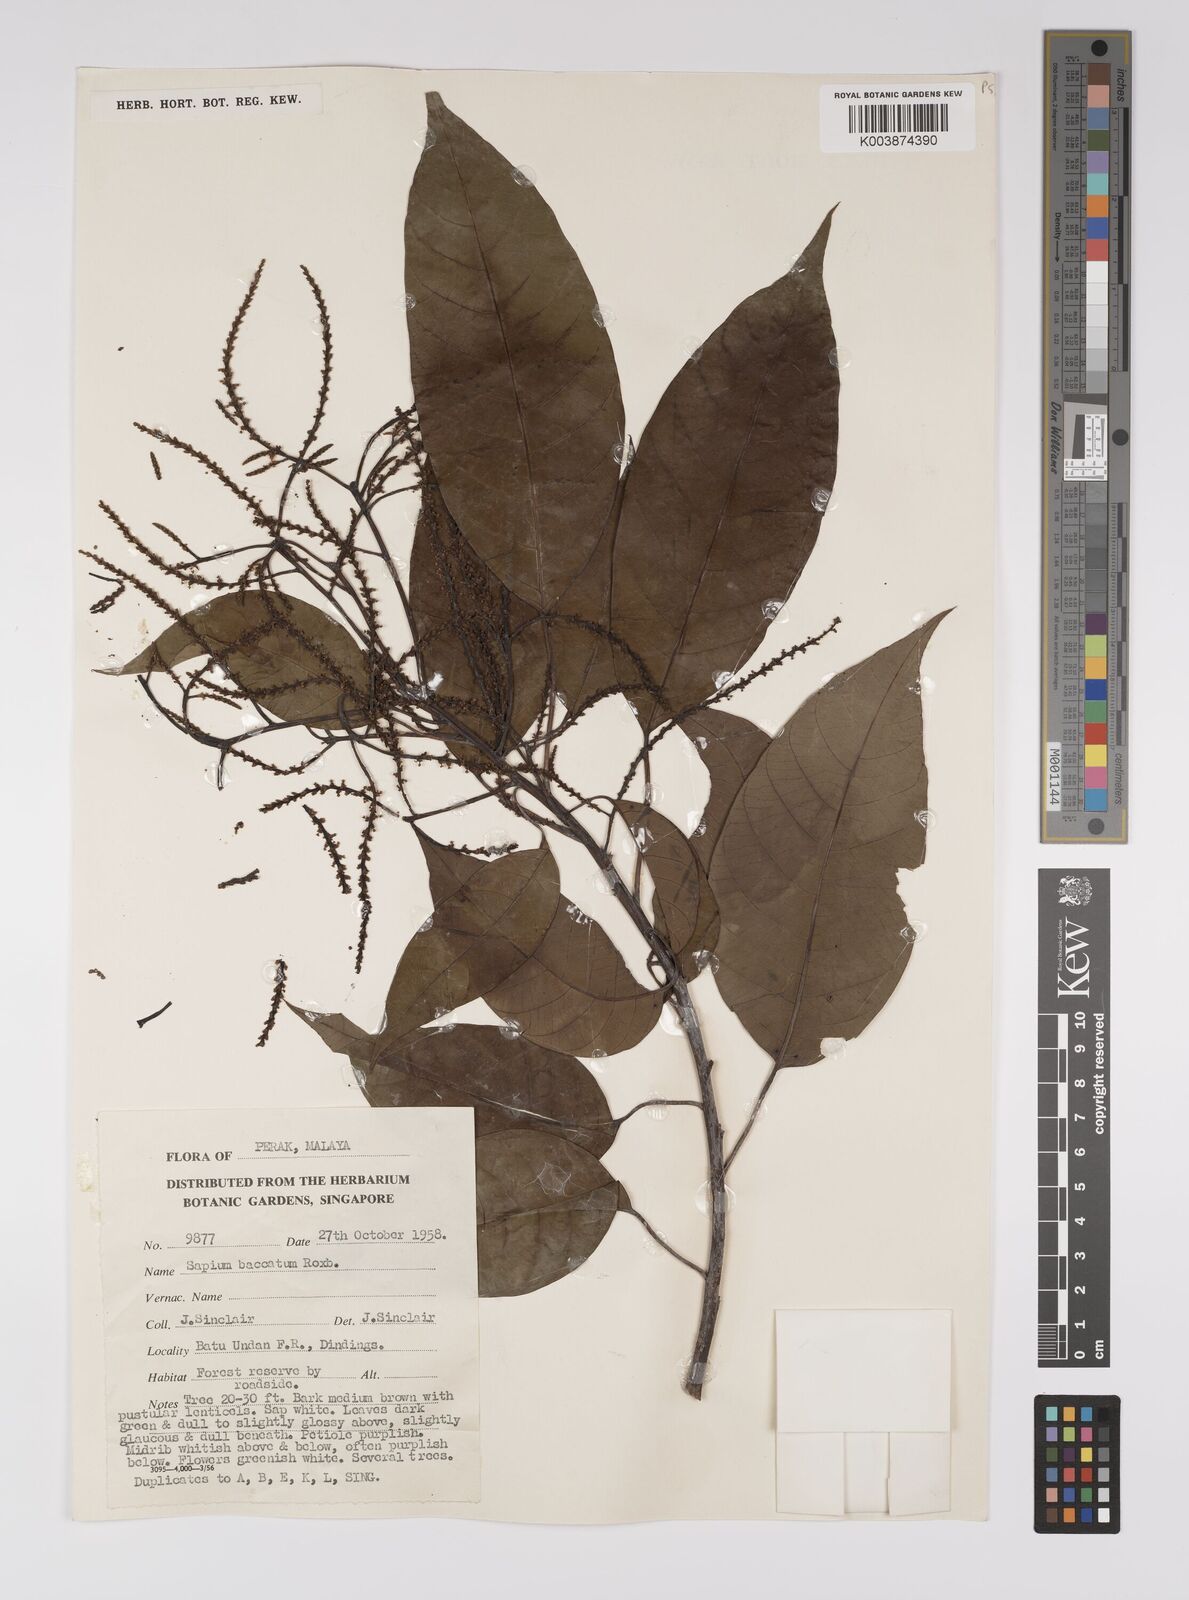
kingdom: Plantae
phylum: Tracheophyta
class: Magnoliopsida
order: Malpighiales
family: Euphorbiaceae
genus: Balakata
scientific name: Balakata baccata
